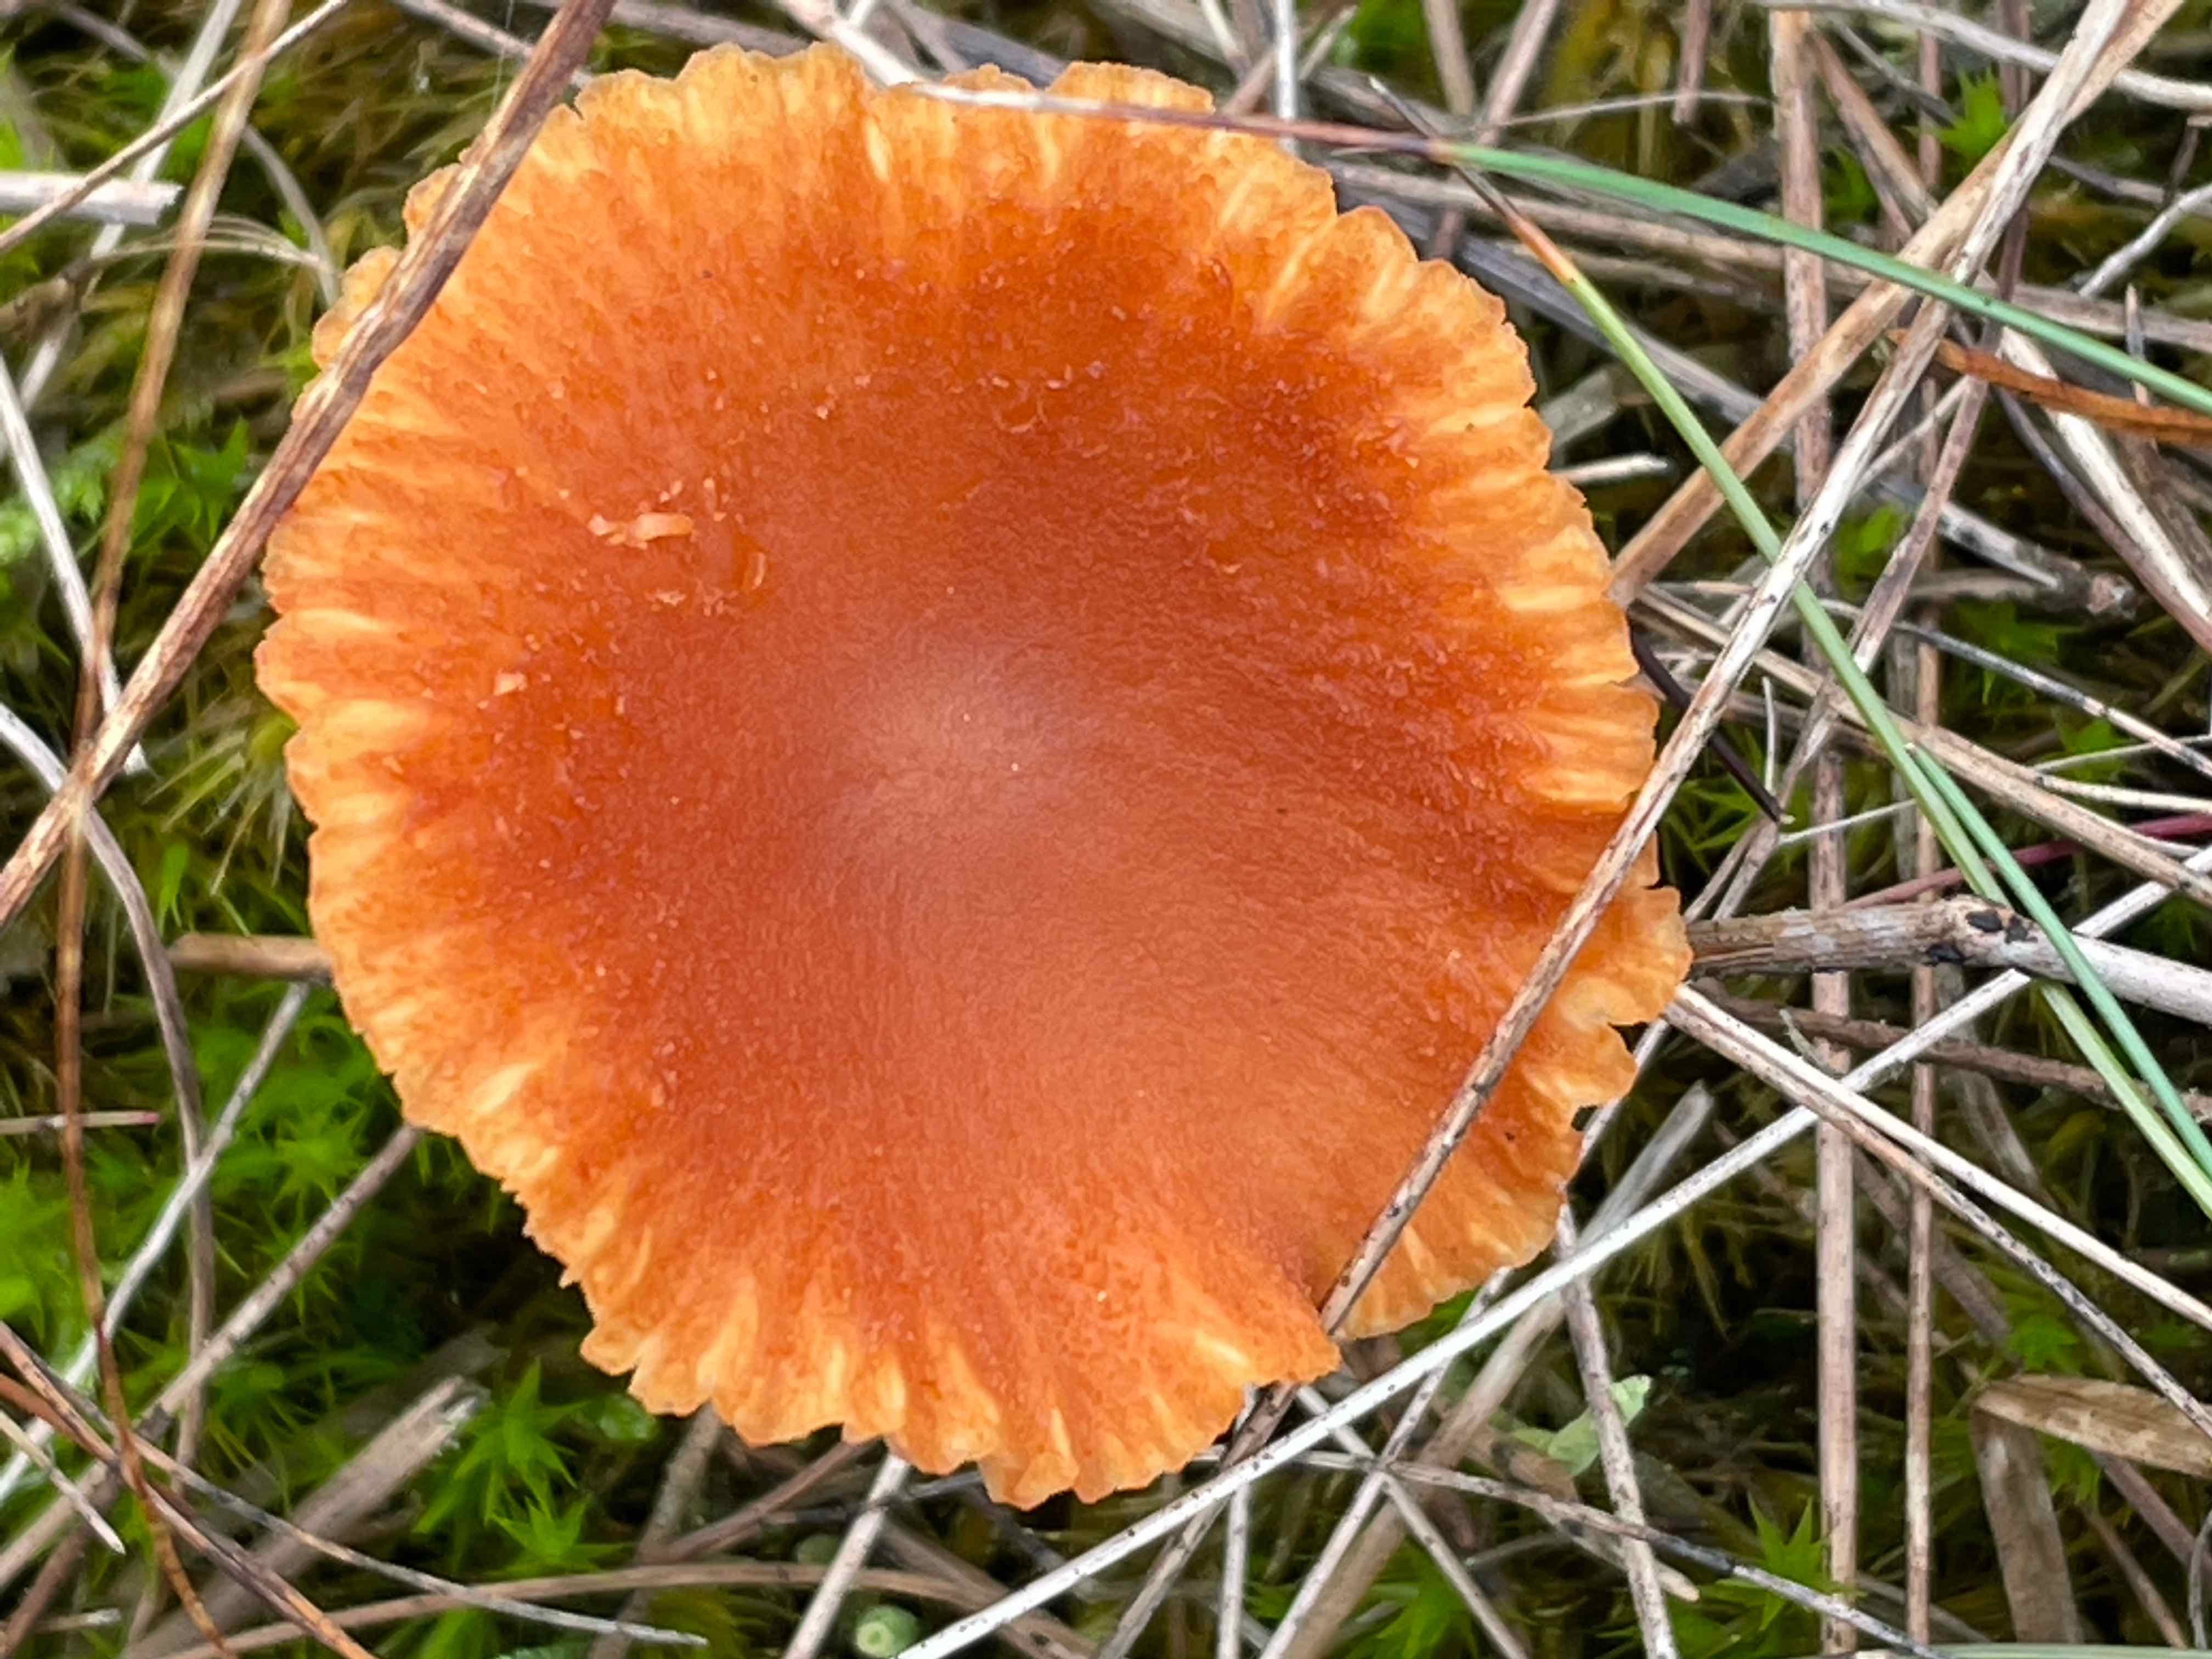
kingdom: Fungi
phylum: Basidiomycota
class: Agaricomycetes
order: Agaricales
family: Hydnangiaceae
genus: Laccaria
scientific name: Laccaria proxima
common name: stor ametysthat
